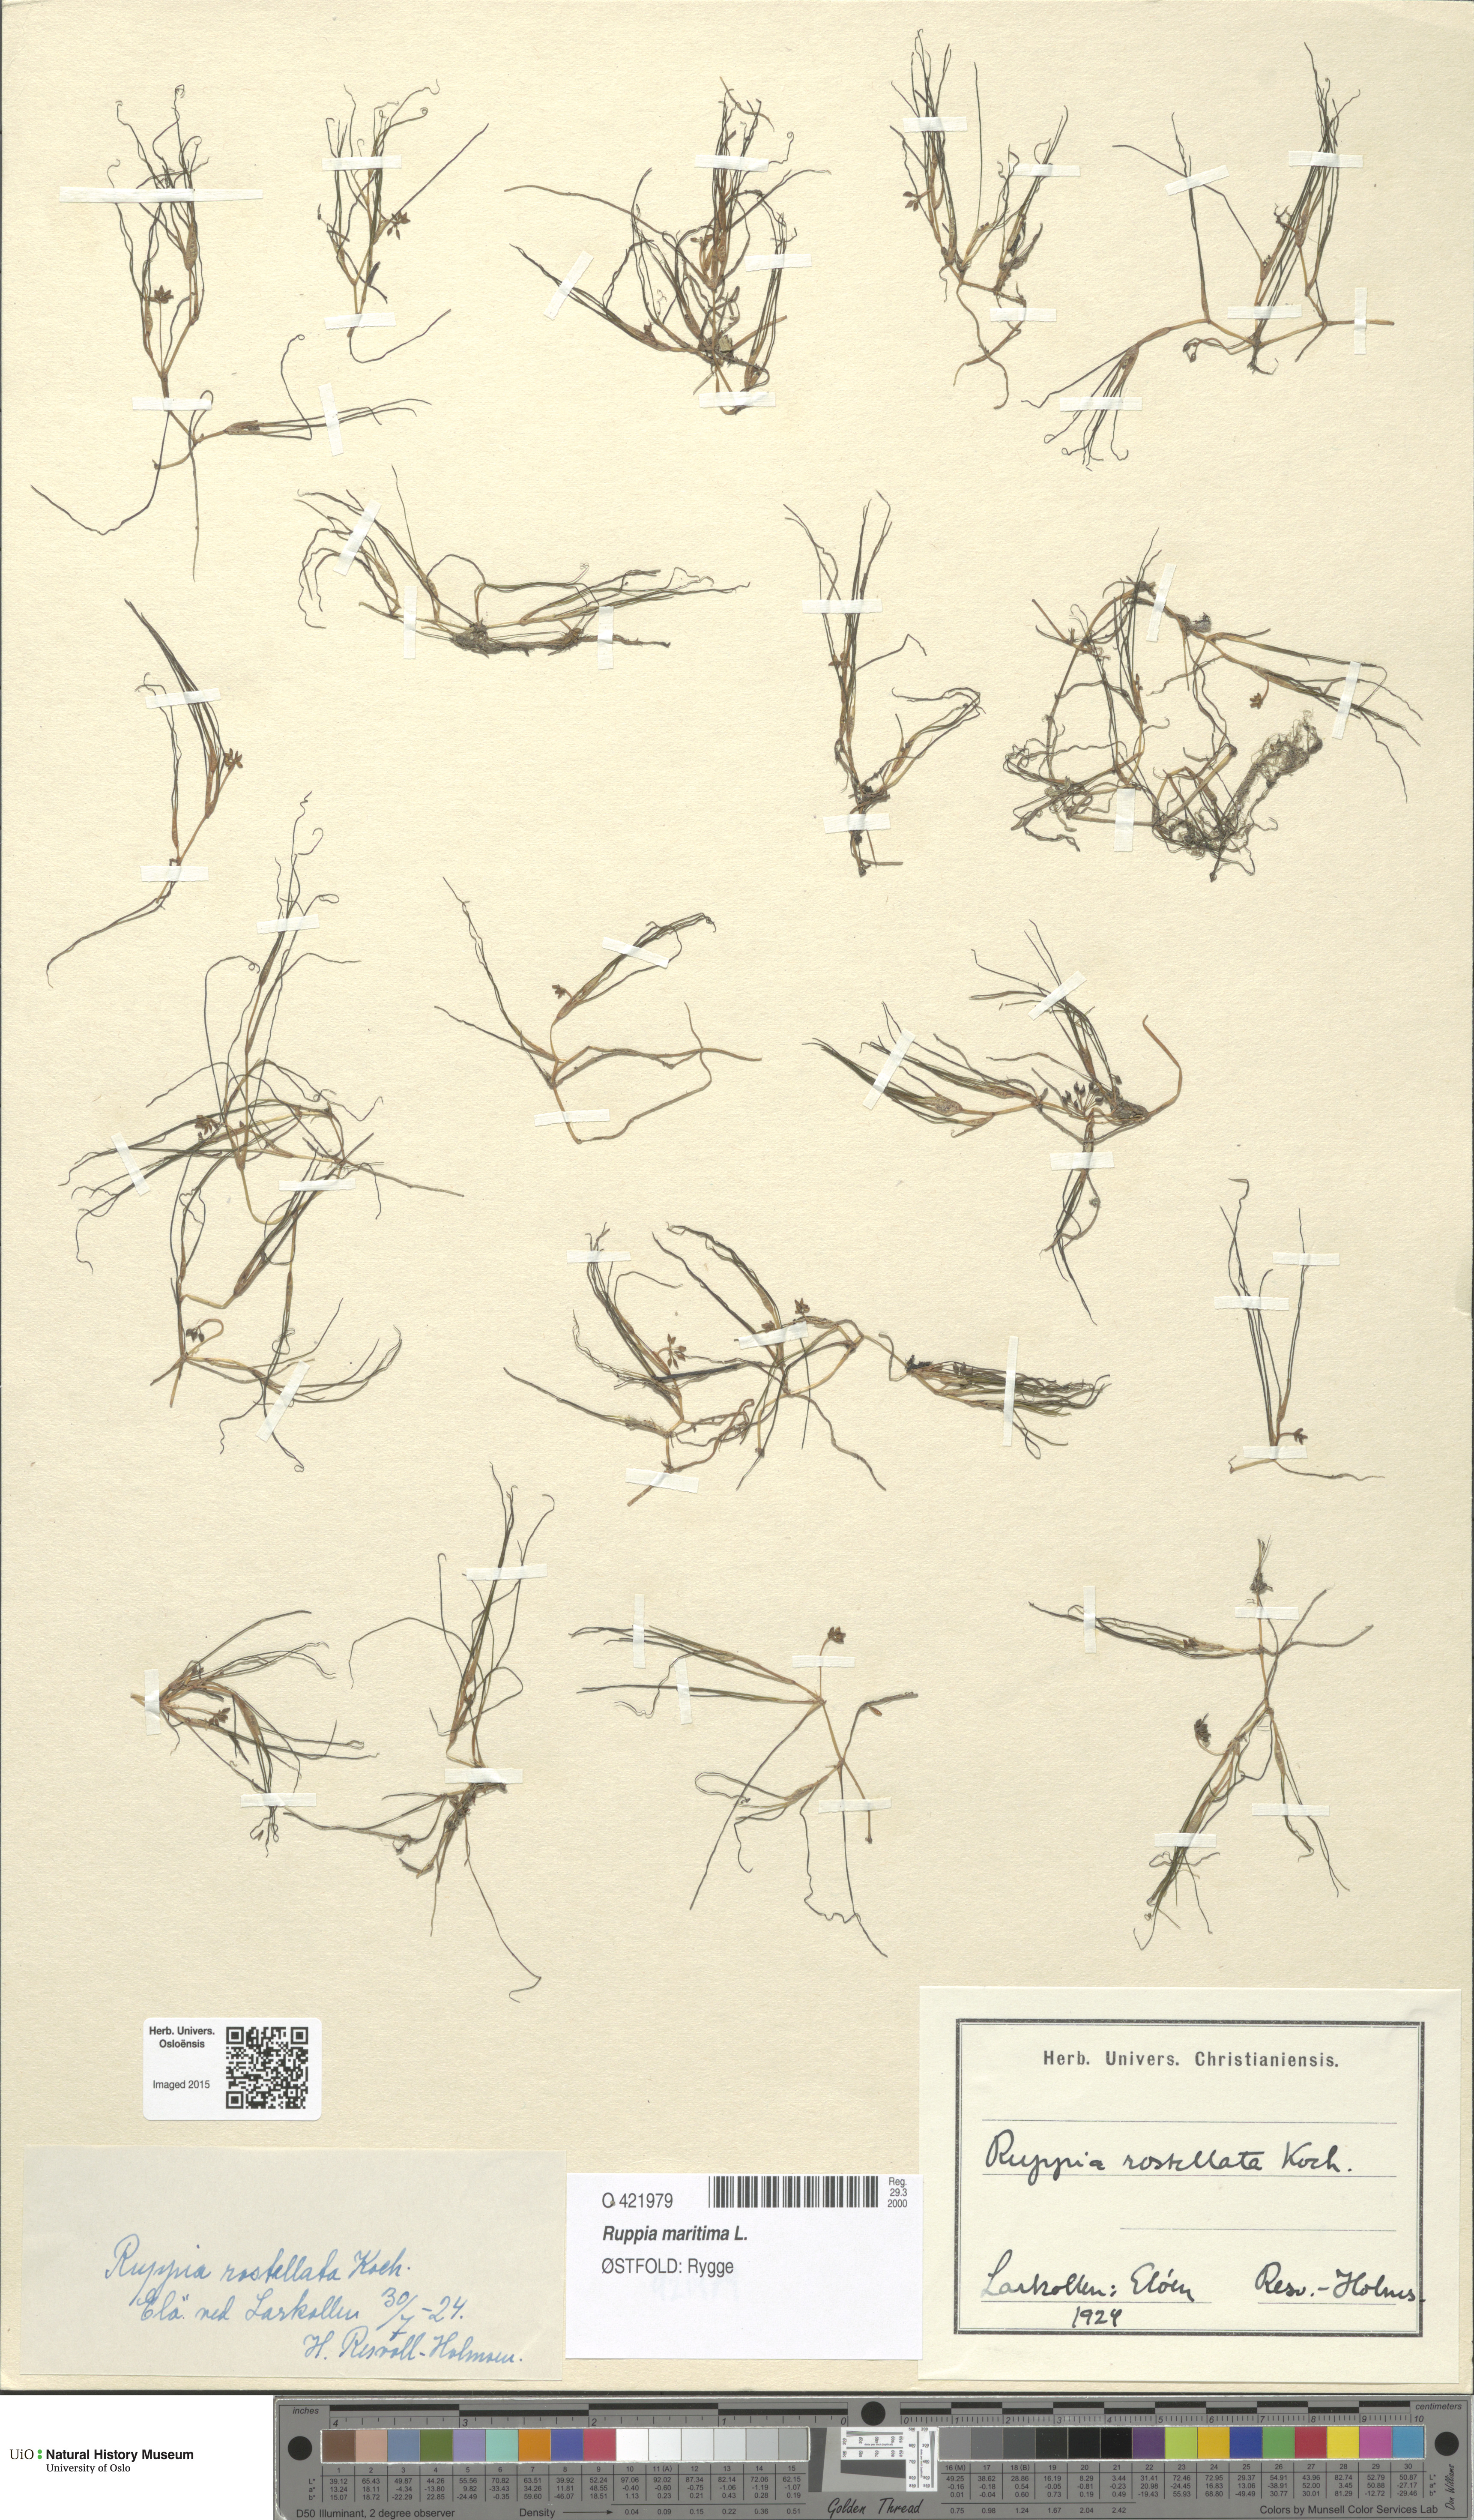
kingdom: Plantae
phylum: Tracheophyta
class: Liliopsida
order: Alismatales
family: Ruppiaceae
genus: Ruppia
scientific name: Ruppia maritima
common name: Beaked tasselweed
